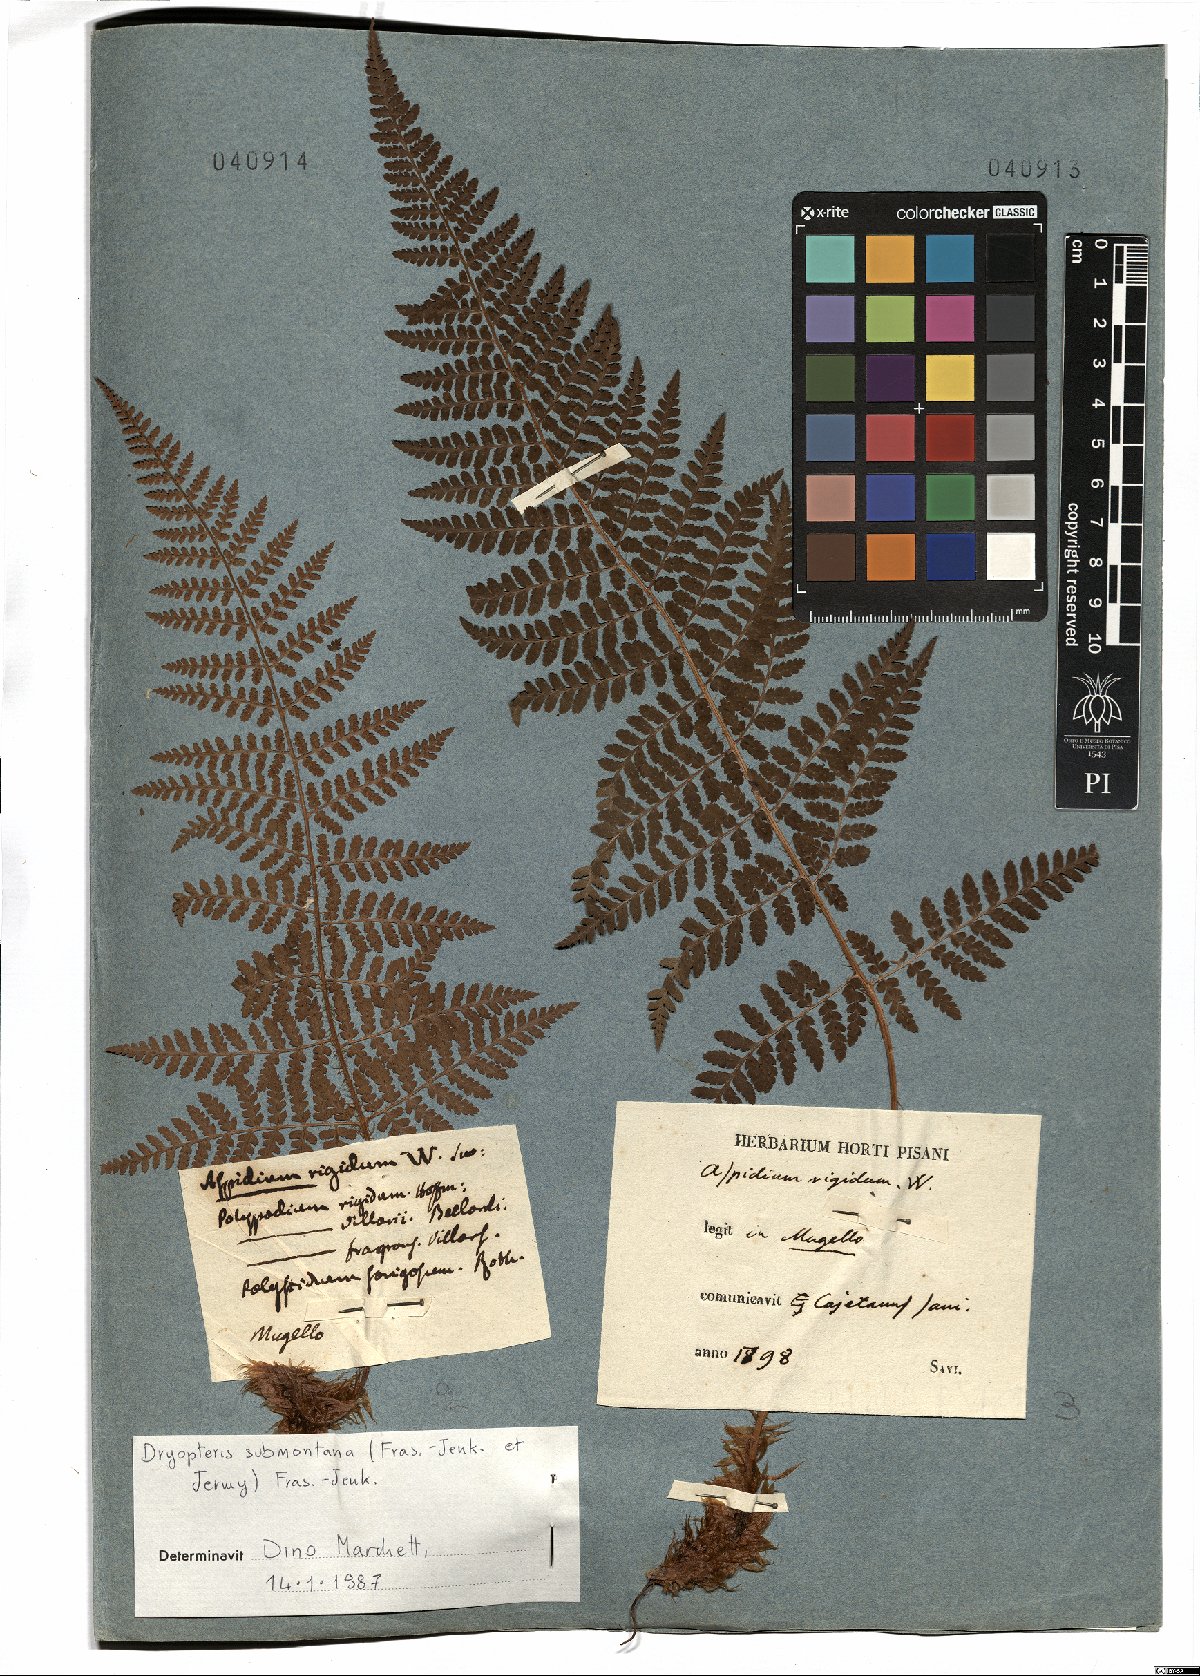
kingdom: Plantae
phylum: Tracheophyta
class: Polypodiopsida
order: Polypodiales
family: Dryopteridaceae
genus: Dryopteris
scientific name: Dryopteris mindshelkensis
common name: Limestone wood fern
